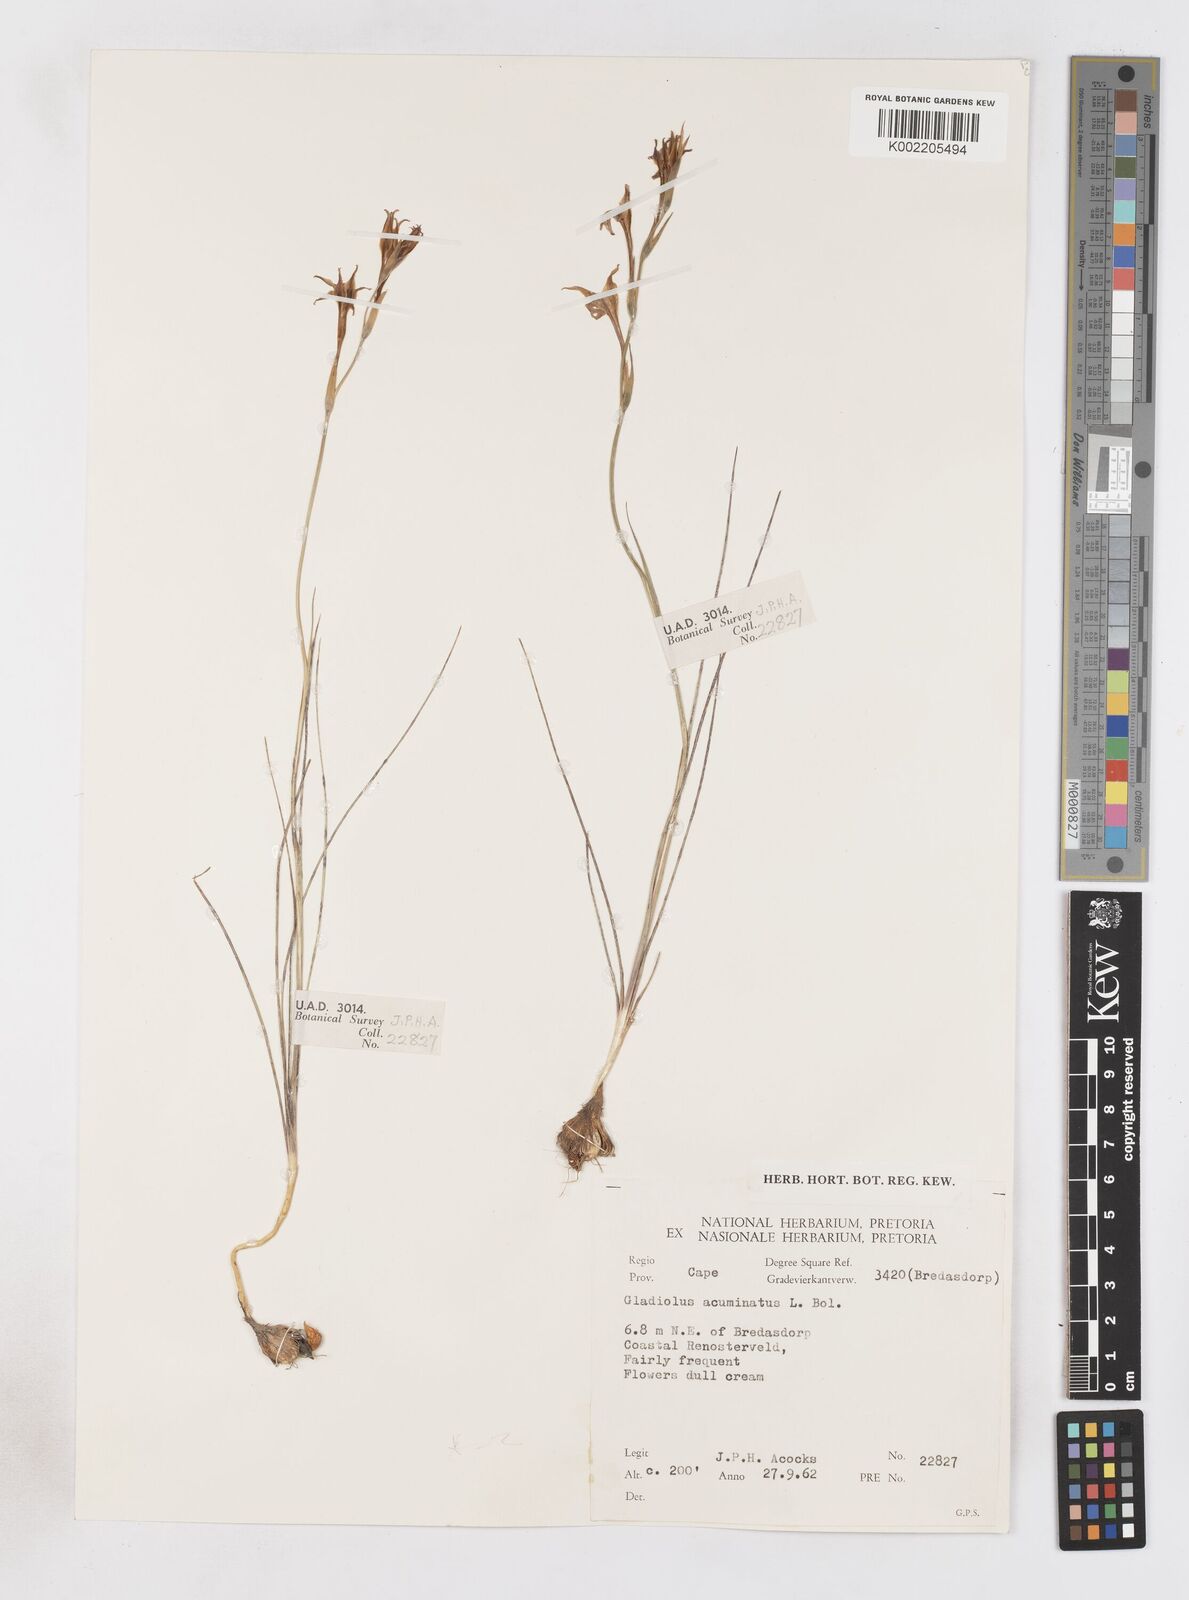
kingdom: Plantae
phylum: Tracheophyta
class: Liliopsida
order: Asparagales
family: Iridaceae
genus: Gladiolus
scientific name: Gladiolus acuminatus
